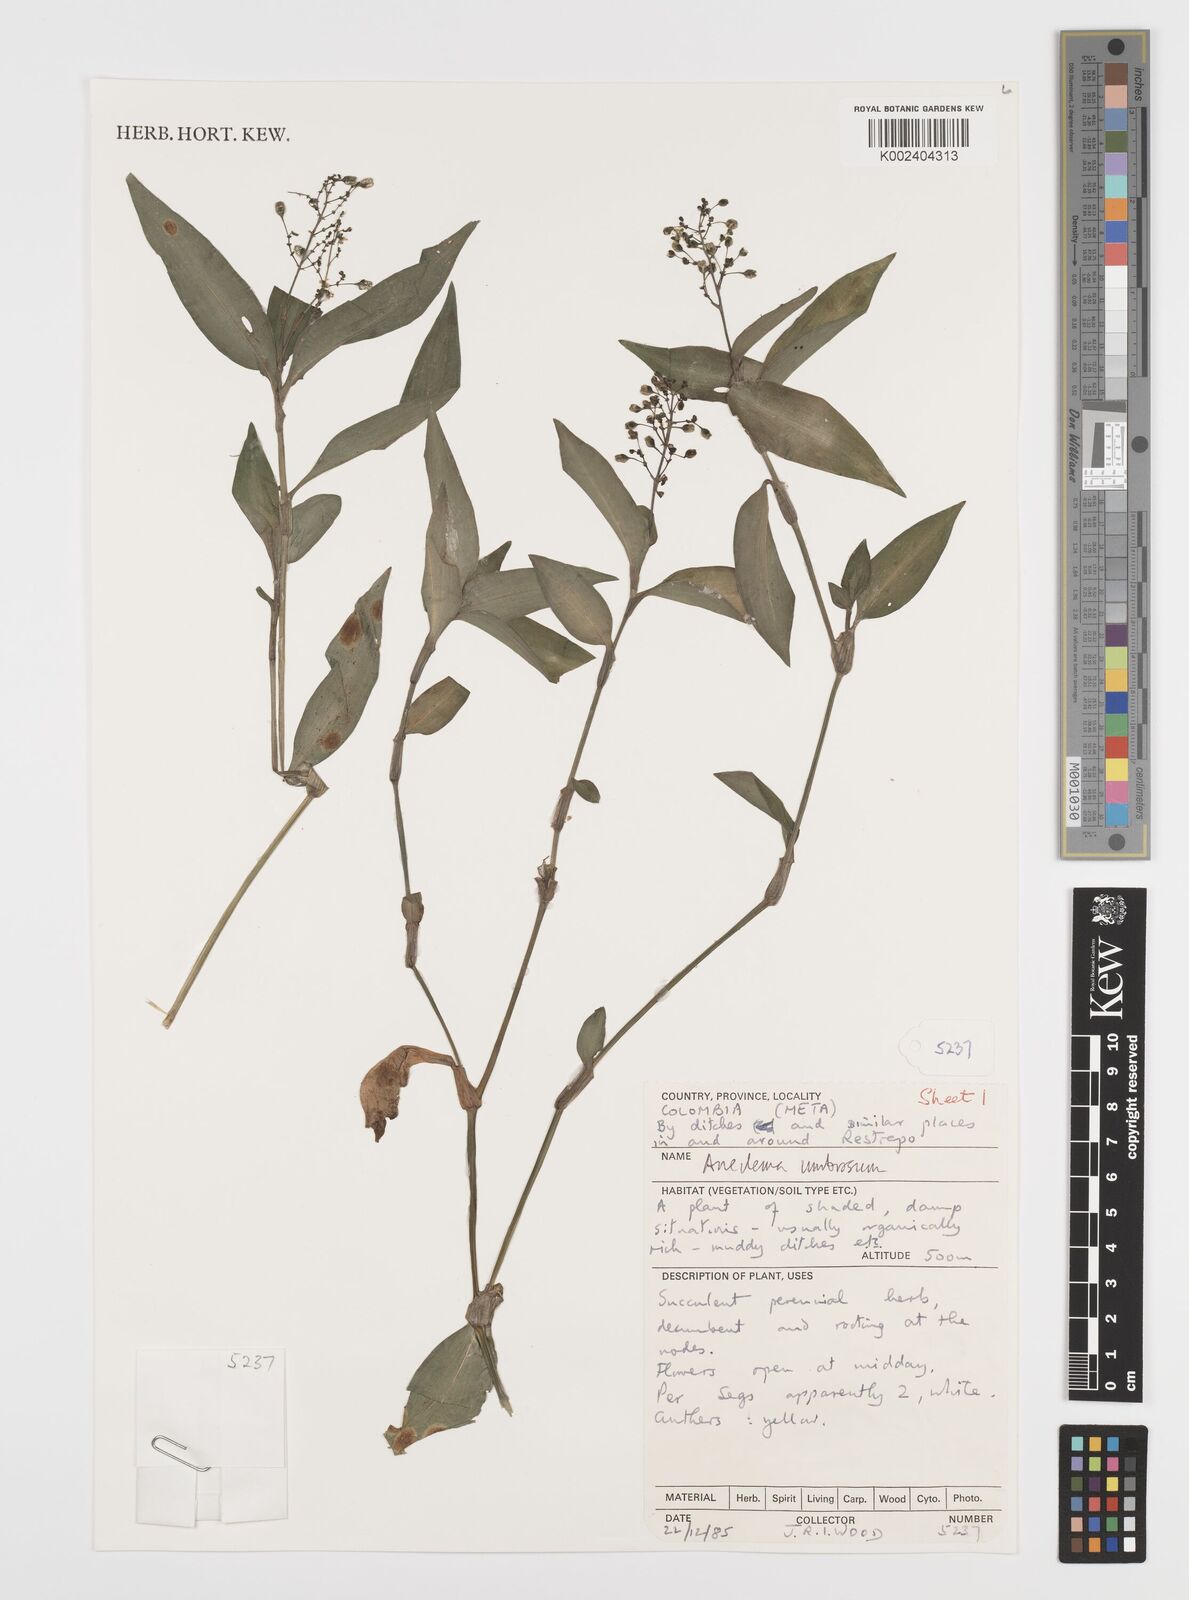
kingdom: Plantae
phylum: Tracheophyta
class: Liliopsida
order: Commelinales
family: Commelinaceae
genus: Aneilema
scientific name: Aneilema umbrosum
